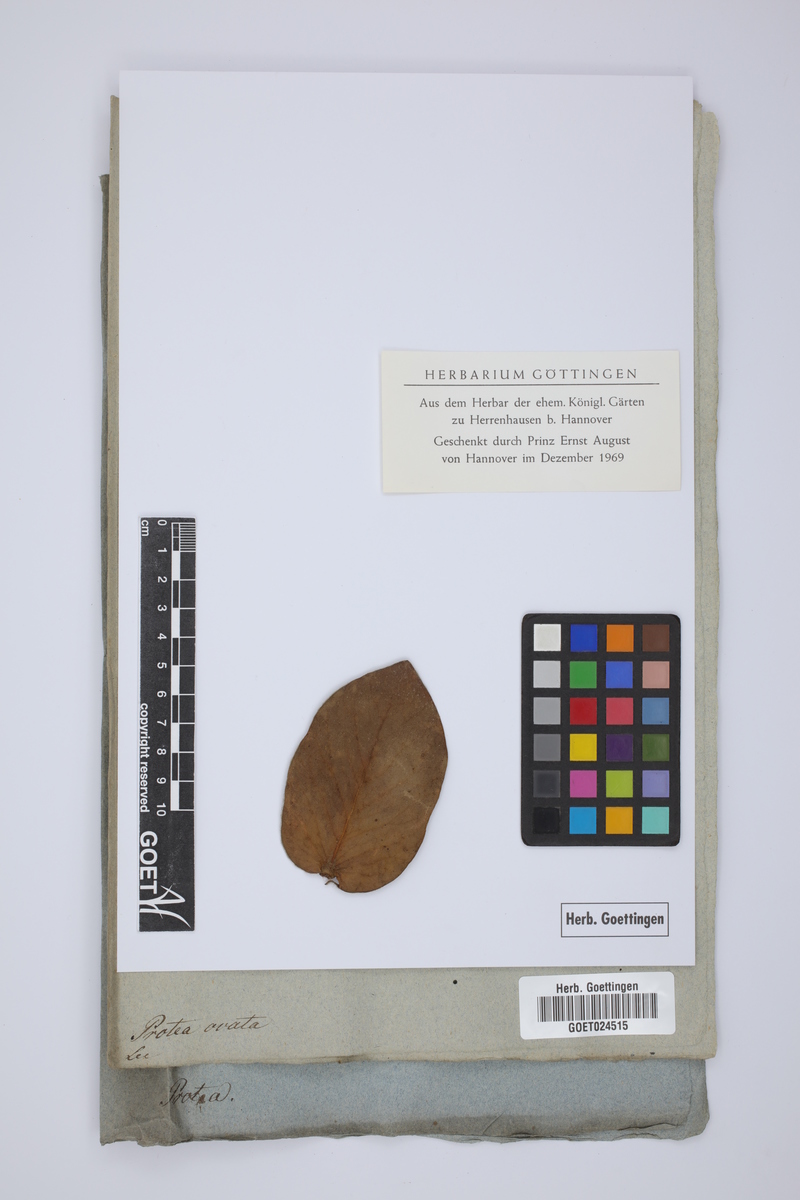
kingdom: Plantae
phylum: Tracheophyta
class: Magnoliopsida
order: Proteales
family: Proteaceae
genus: Protea
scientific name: Protea ovata
